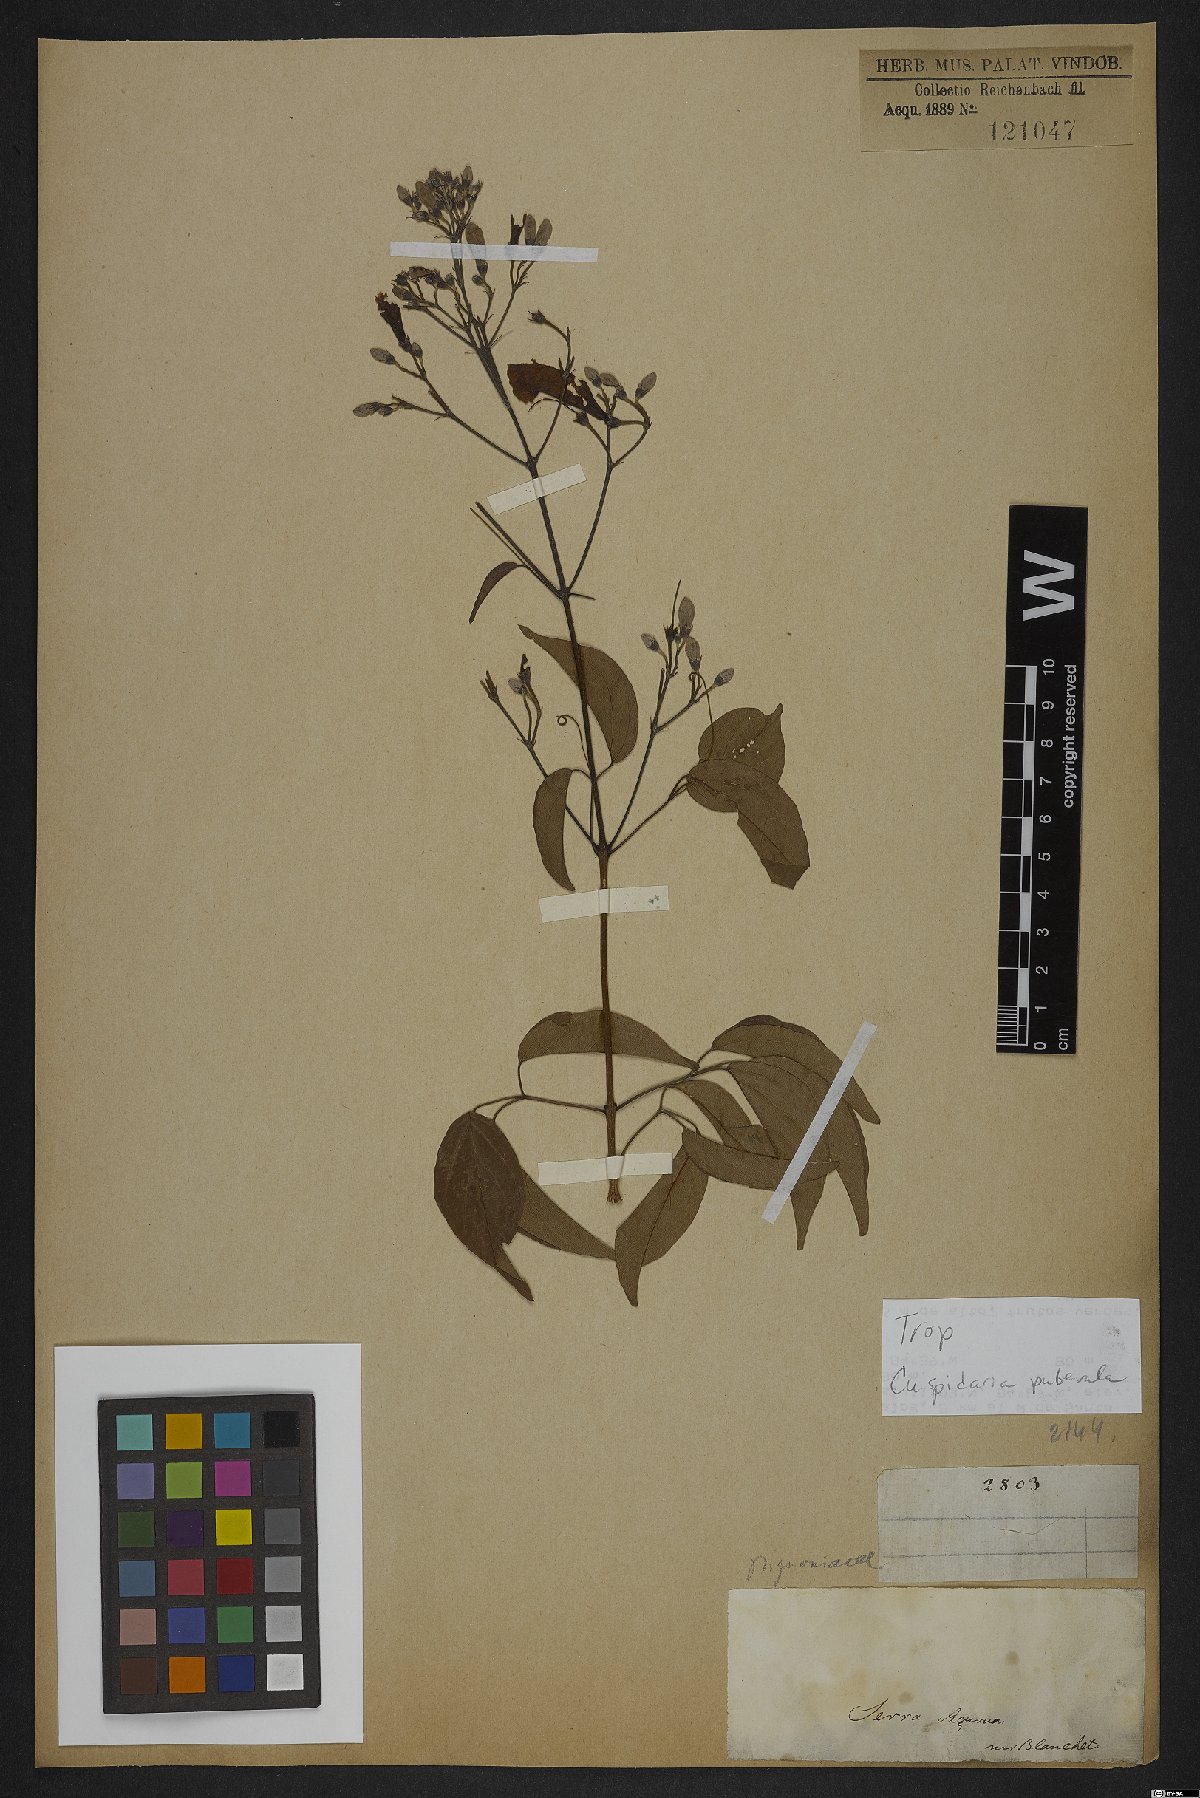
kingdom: Plantae
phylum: Tracheophyta
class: Magnoliopsida
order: Lamiales
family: Bignoniaceae
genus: Cuspidaria
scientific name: Cuspidaria simplicifolia
